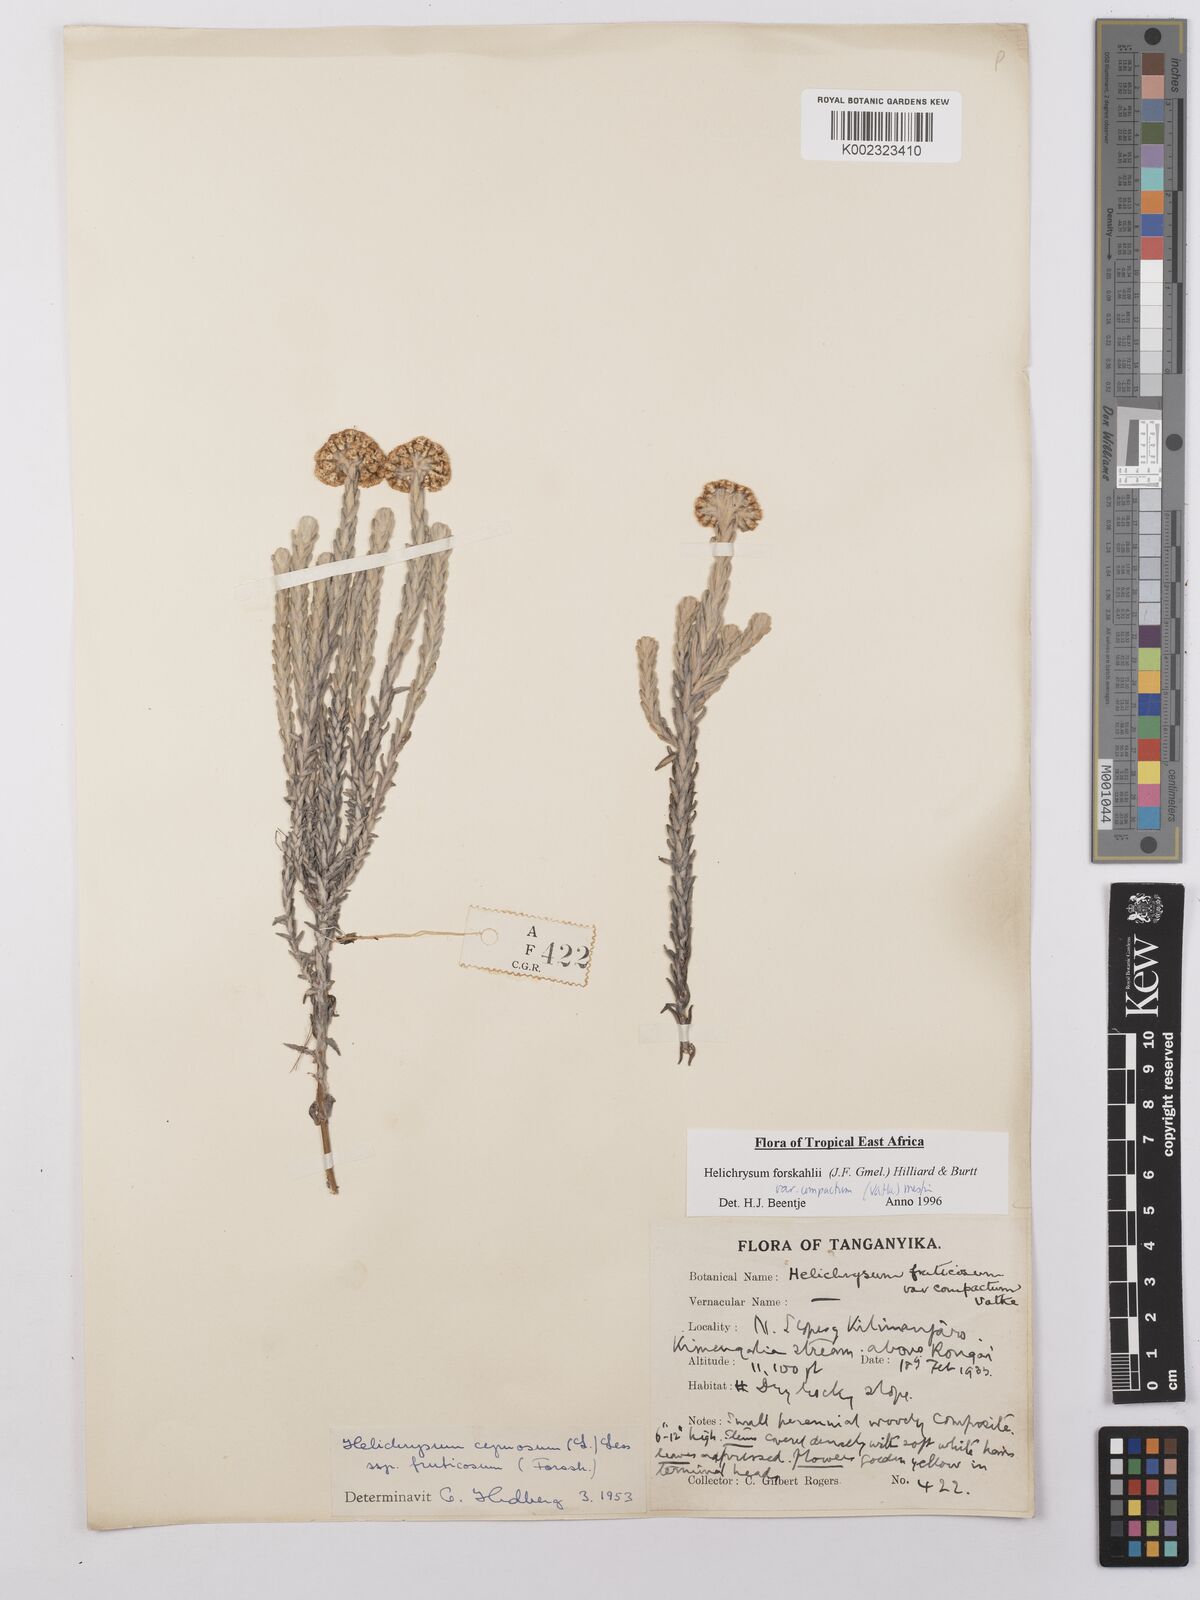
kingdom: Plantae
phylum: Tracheophyta
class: Magnoliopsida
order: Asterales
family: Asteraceae
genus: Helichrysum
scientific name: Helichrysum forskahlii
